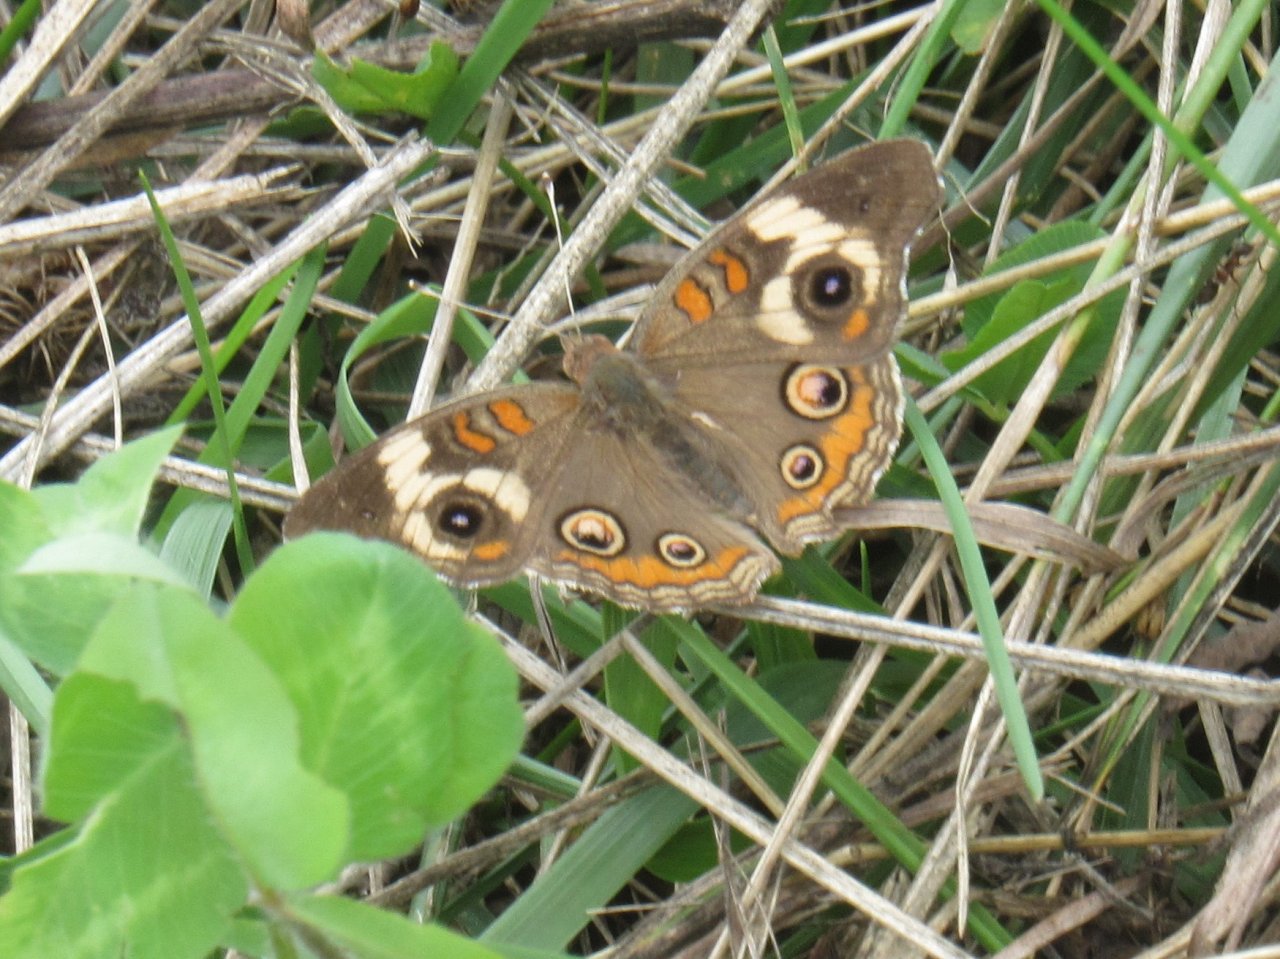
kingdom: Animalia
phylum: Arthropoda
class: Insecta
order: Lepidoptera
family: Nymphalidae
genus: Junonia
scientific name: Junonia coenia
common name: Common Buckeye
